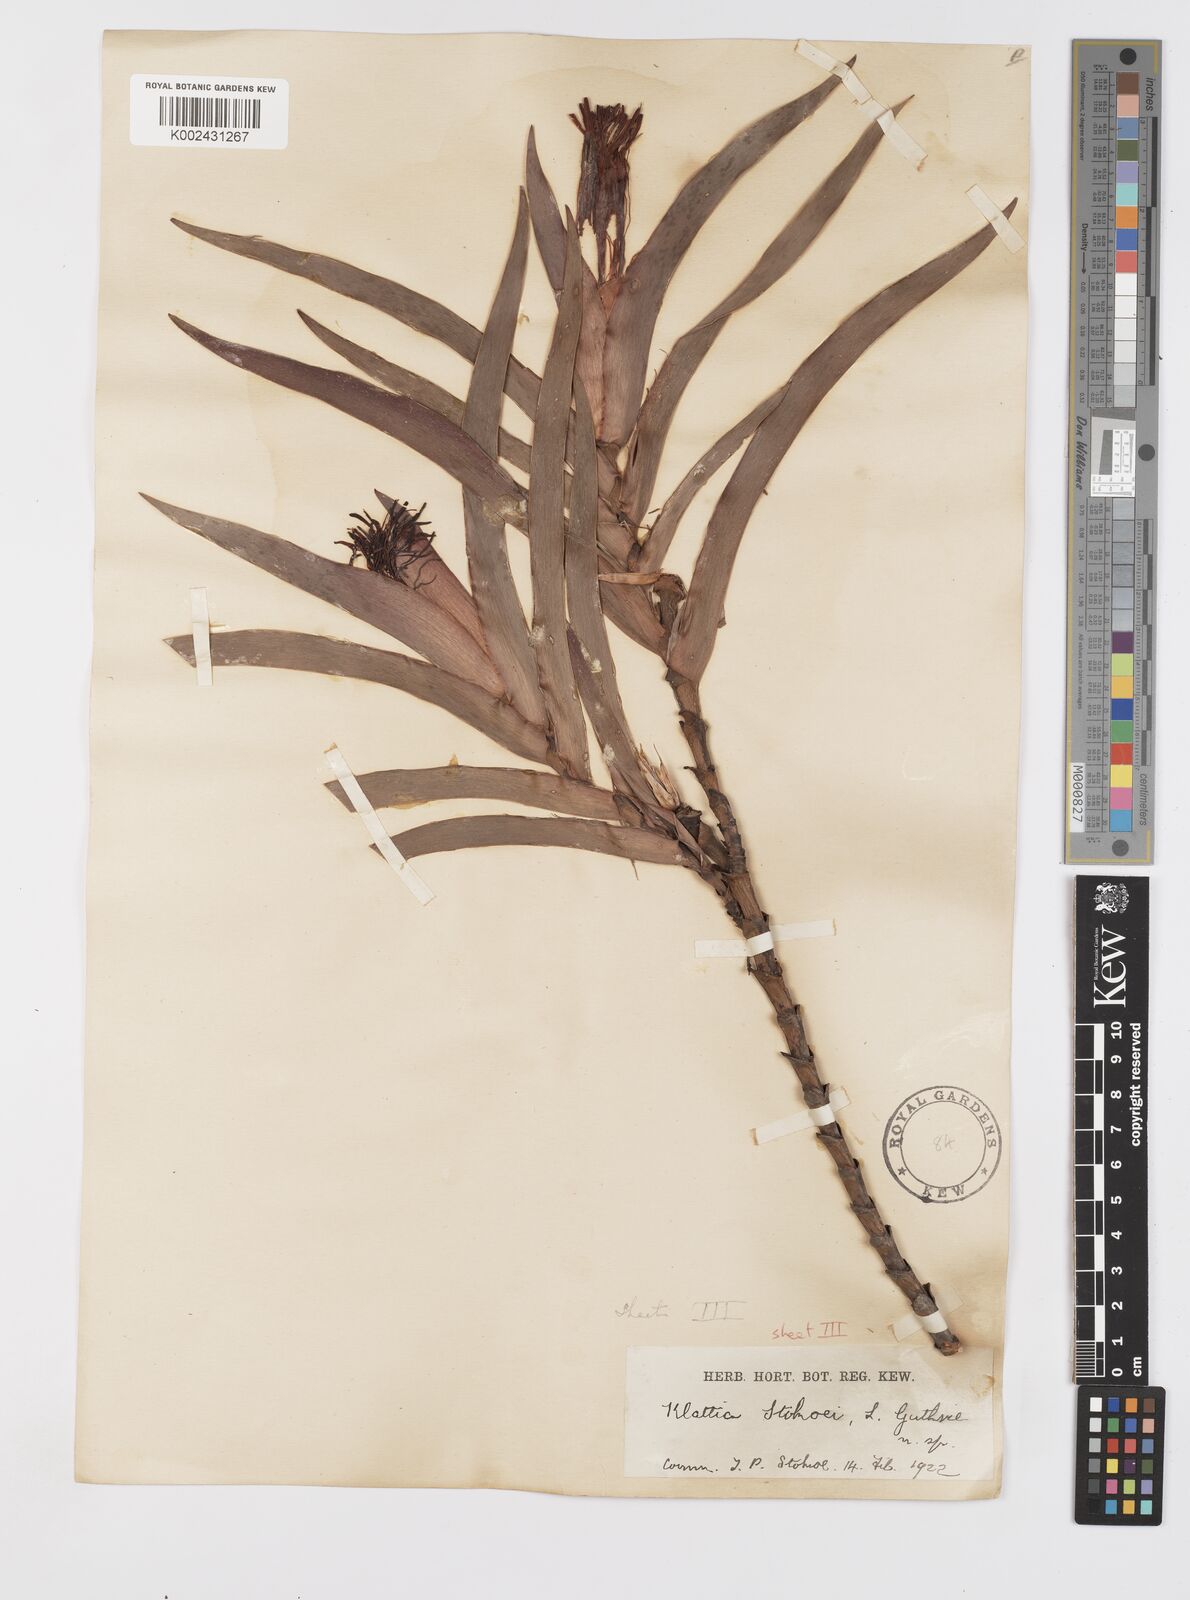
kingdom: Plantae
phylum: Tracheophyta
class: Liliopsida
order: Asparagales
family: Iridaceae
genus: Klattia
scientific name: Klattia stokoei
